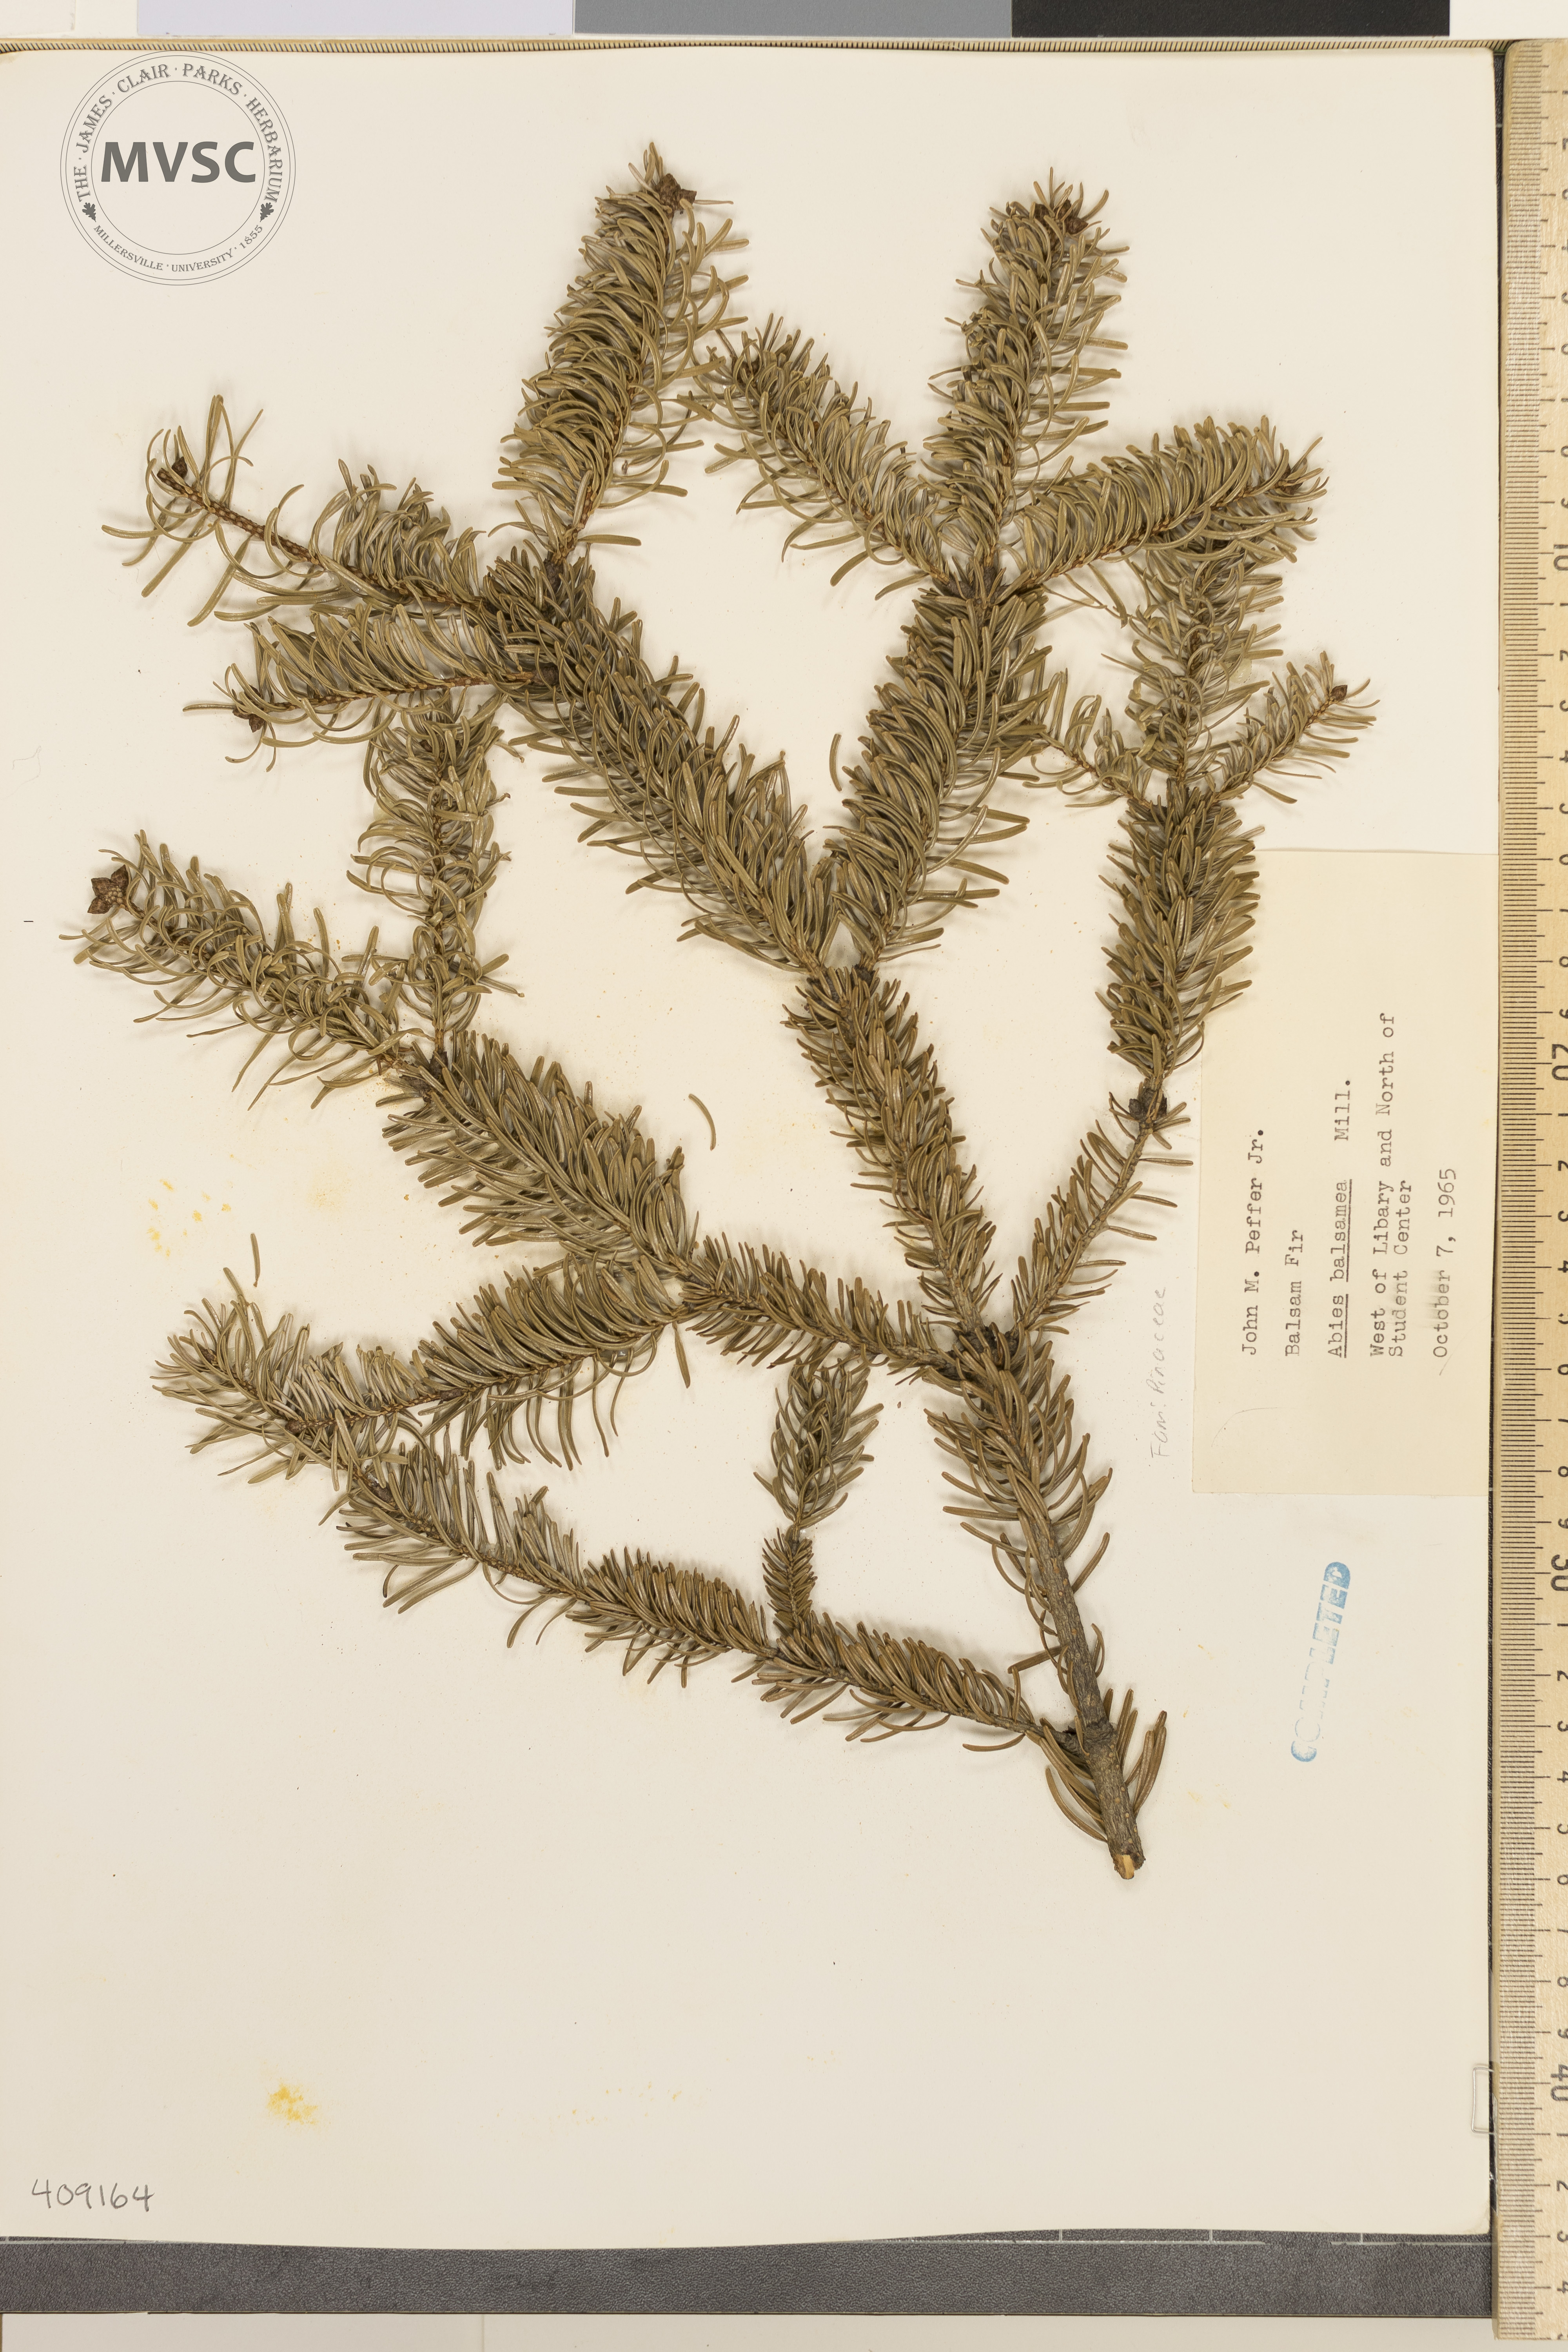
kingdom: Plantae
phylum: Tracheophyta
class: Pinopsida
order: Pinales
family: Pinaceae
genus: Abies
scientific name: Abies balsamea
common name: Balsam fir
